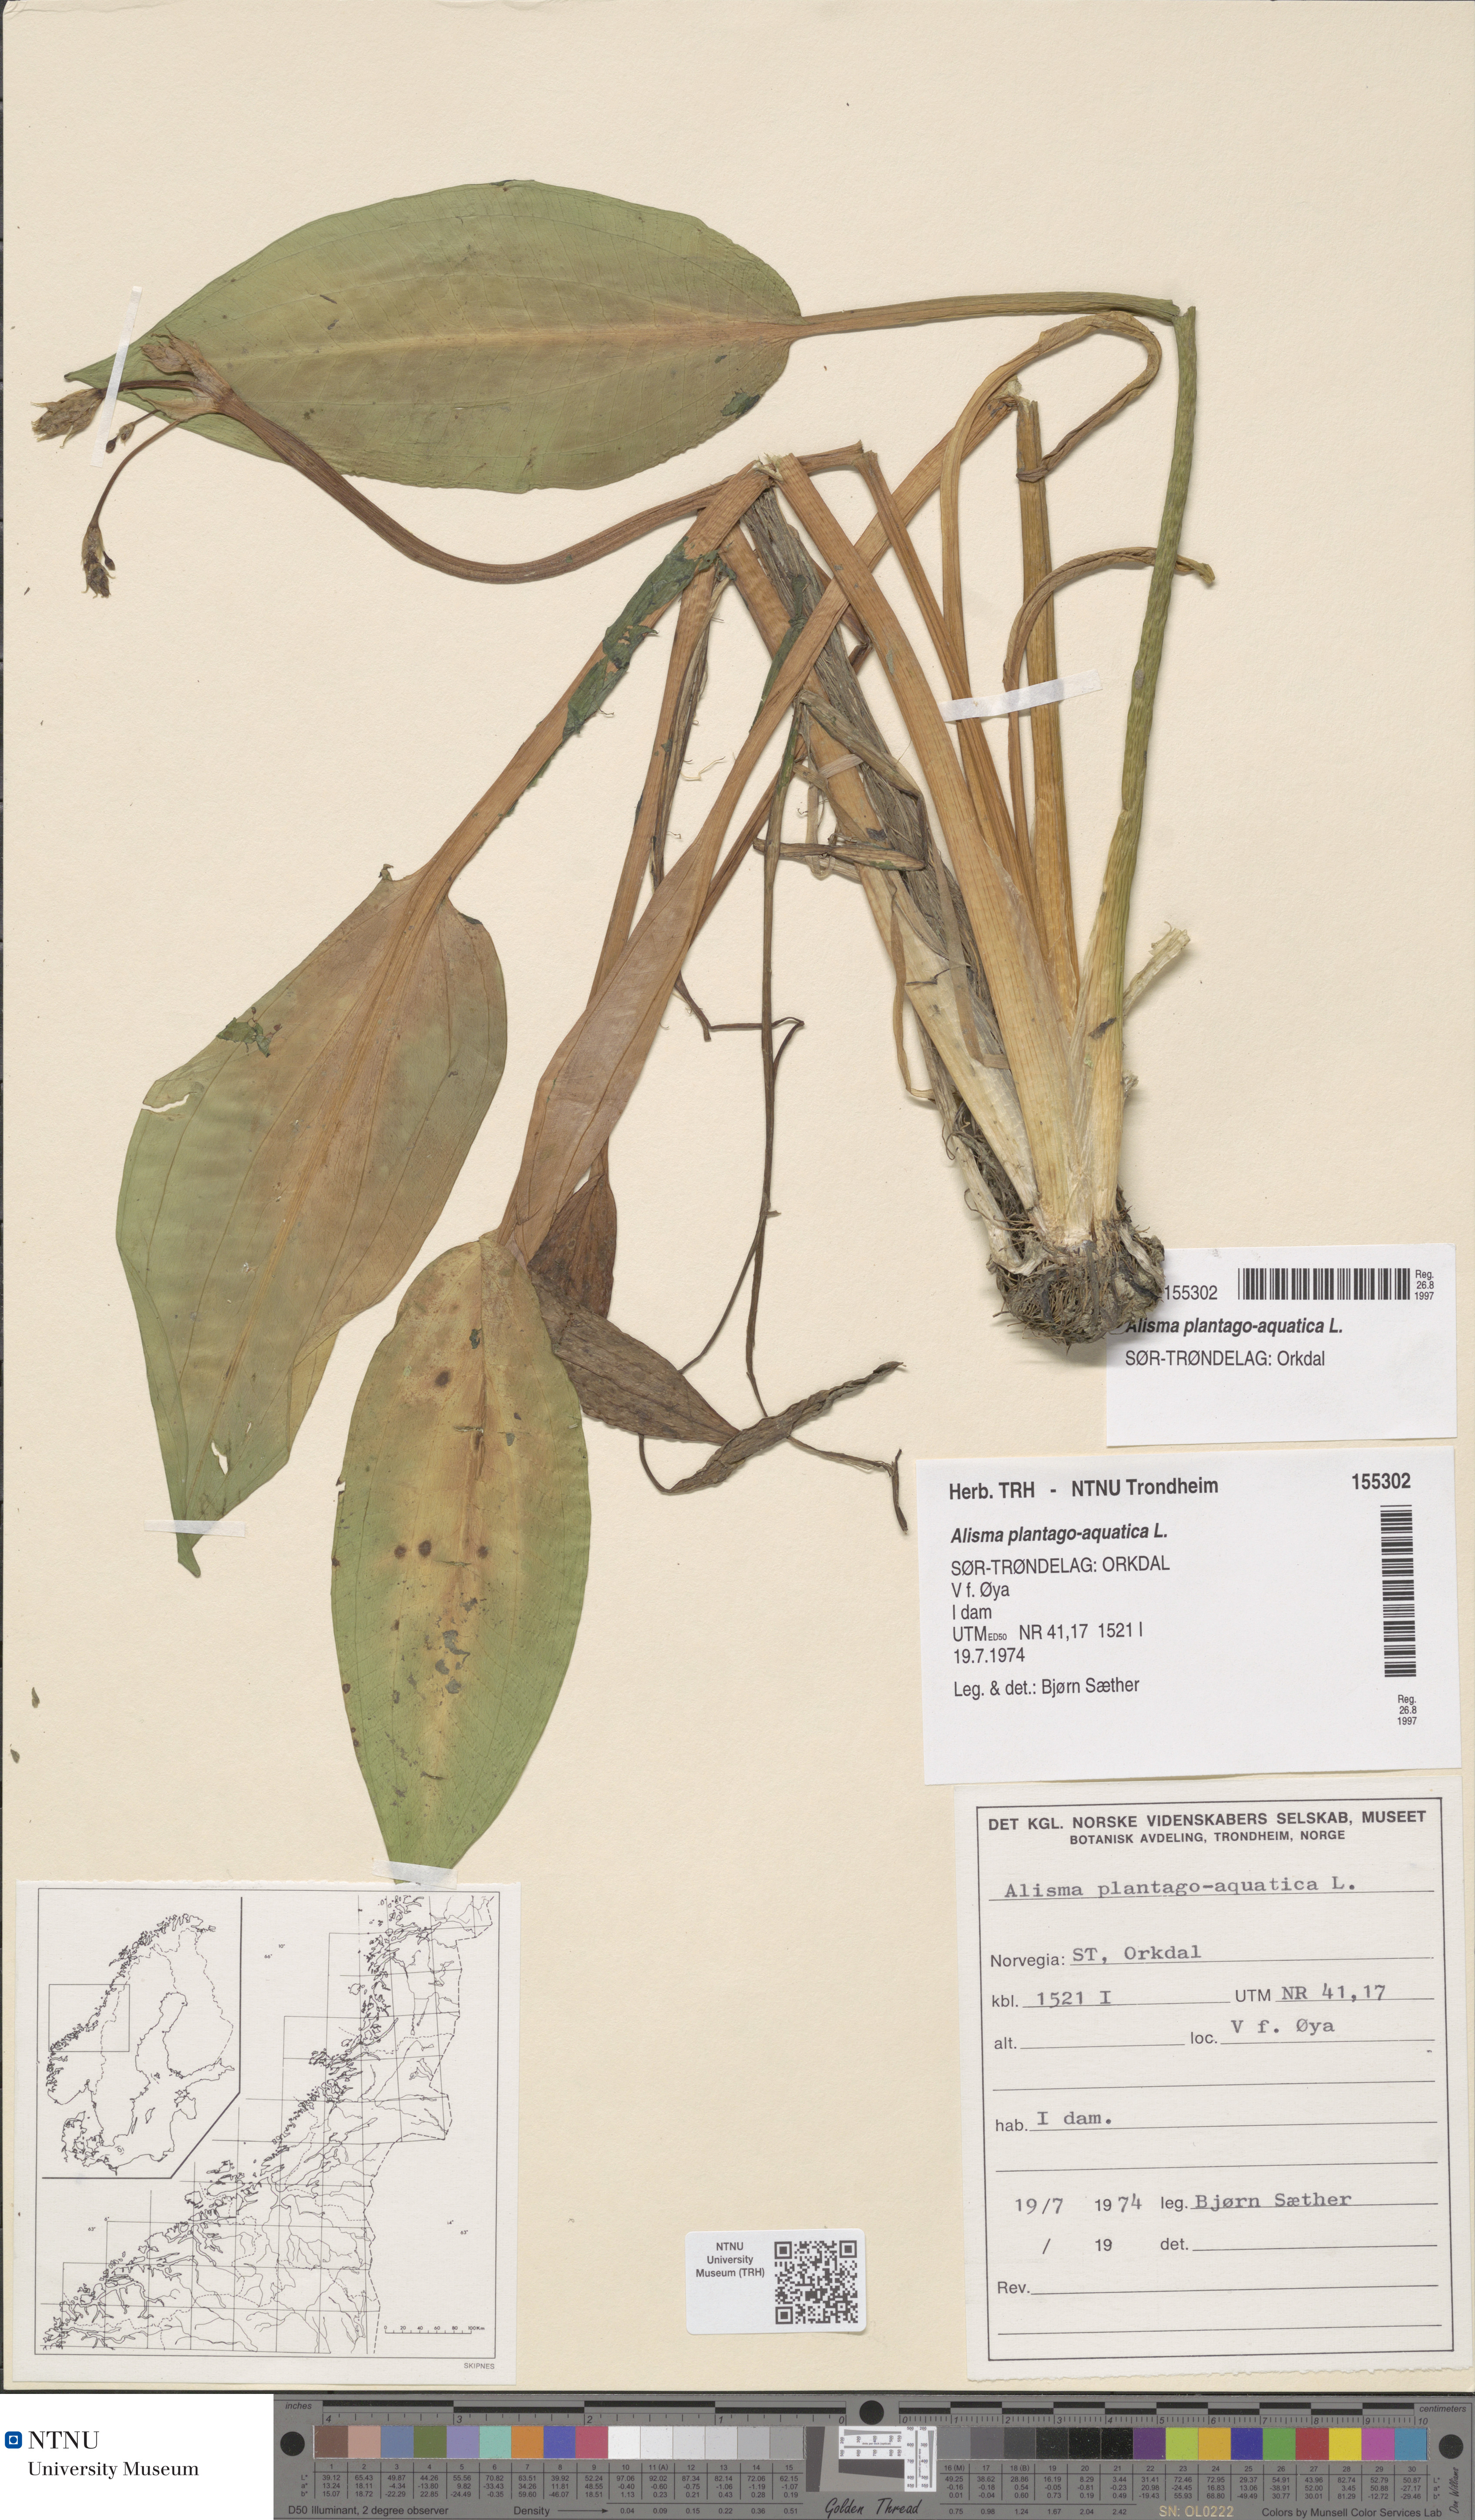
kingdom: Plantae
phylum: Tracheophyta
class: Liliopsida
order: Alismatales
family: Alismataceae
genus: Alisma
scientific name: Alisma plantago-aquatica
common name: Water-plantain
